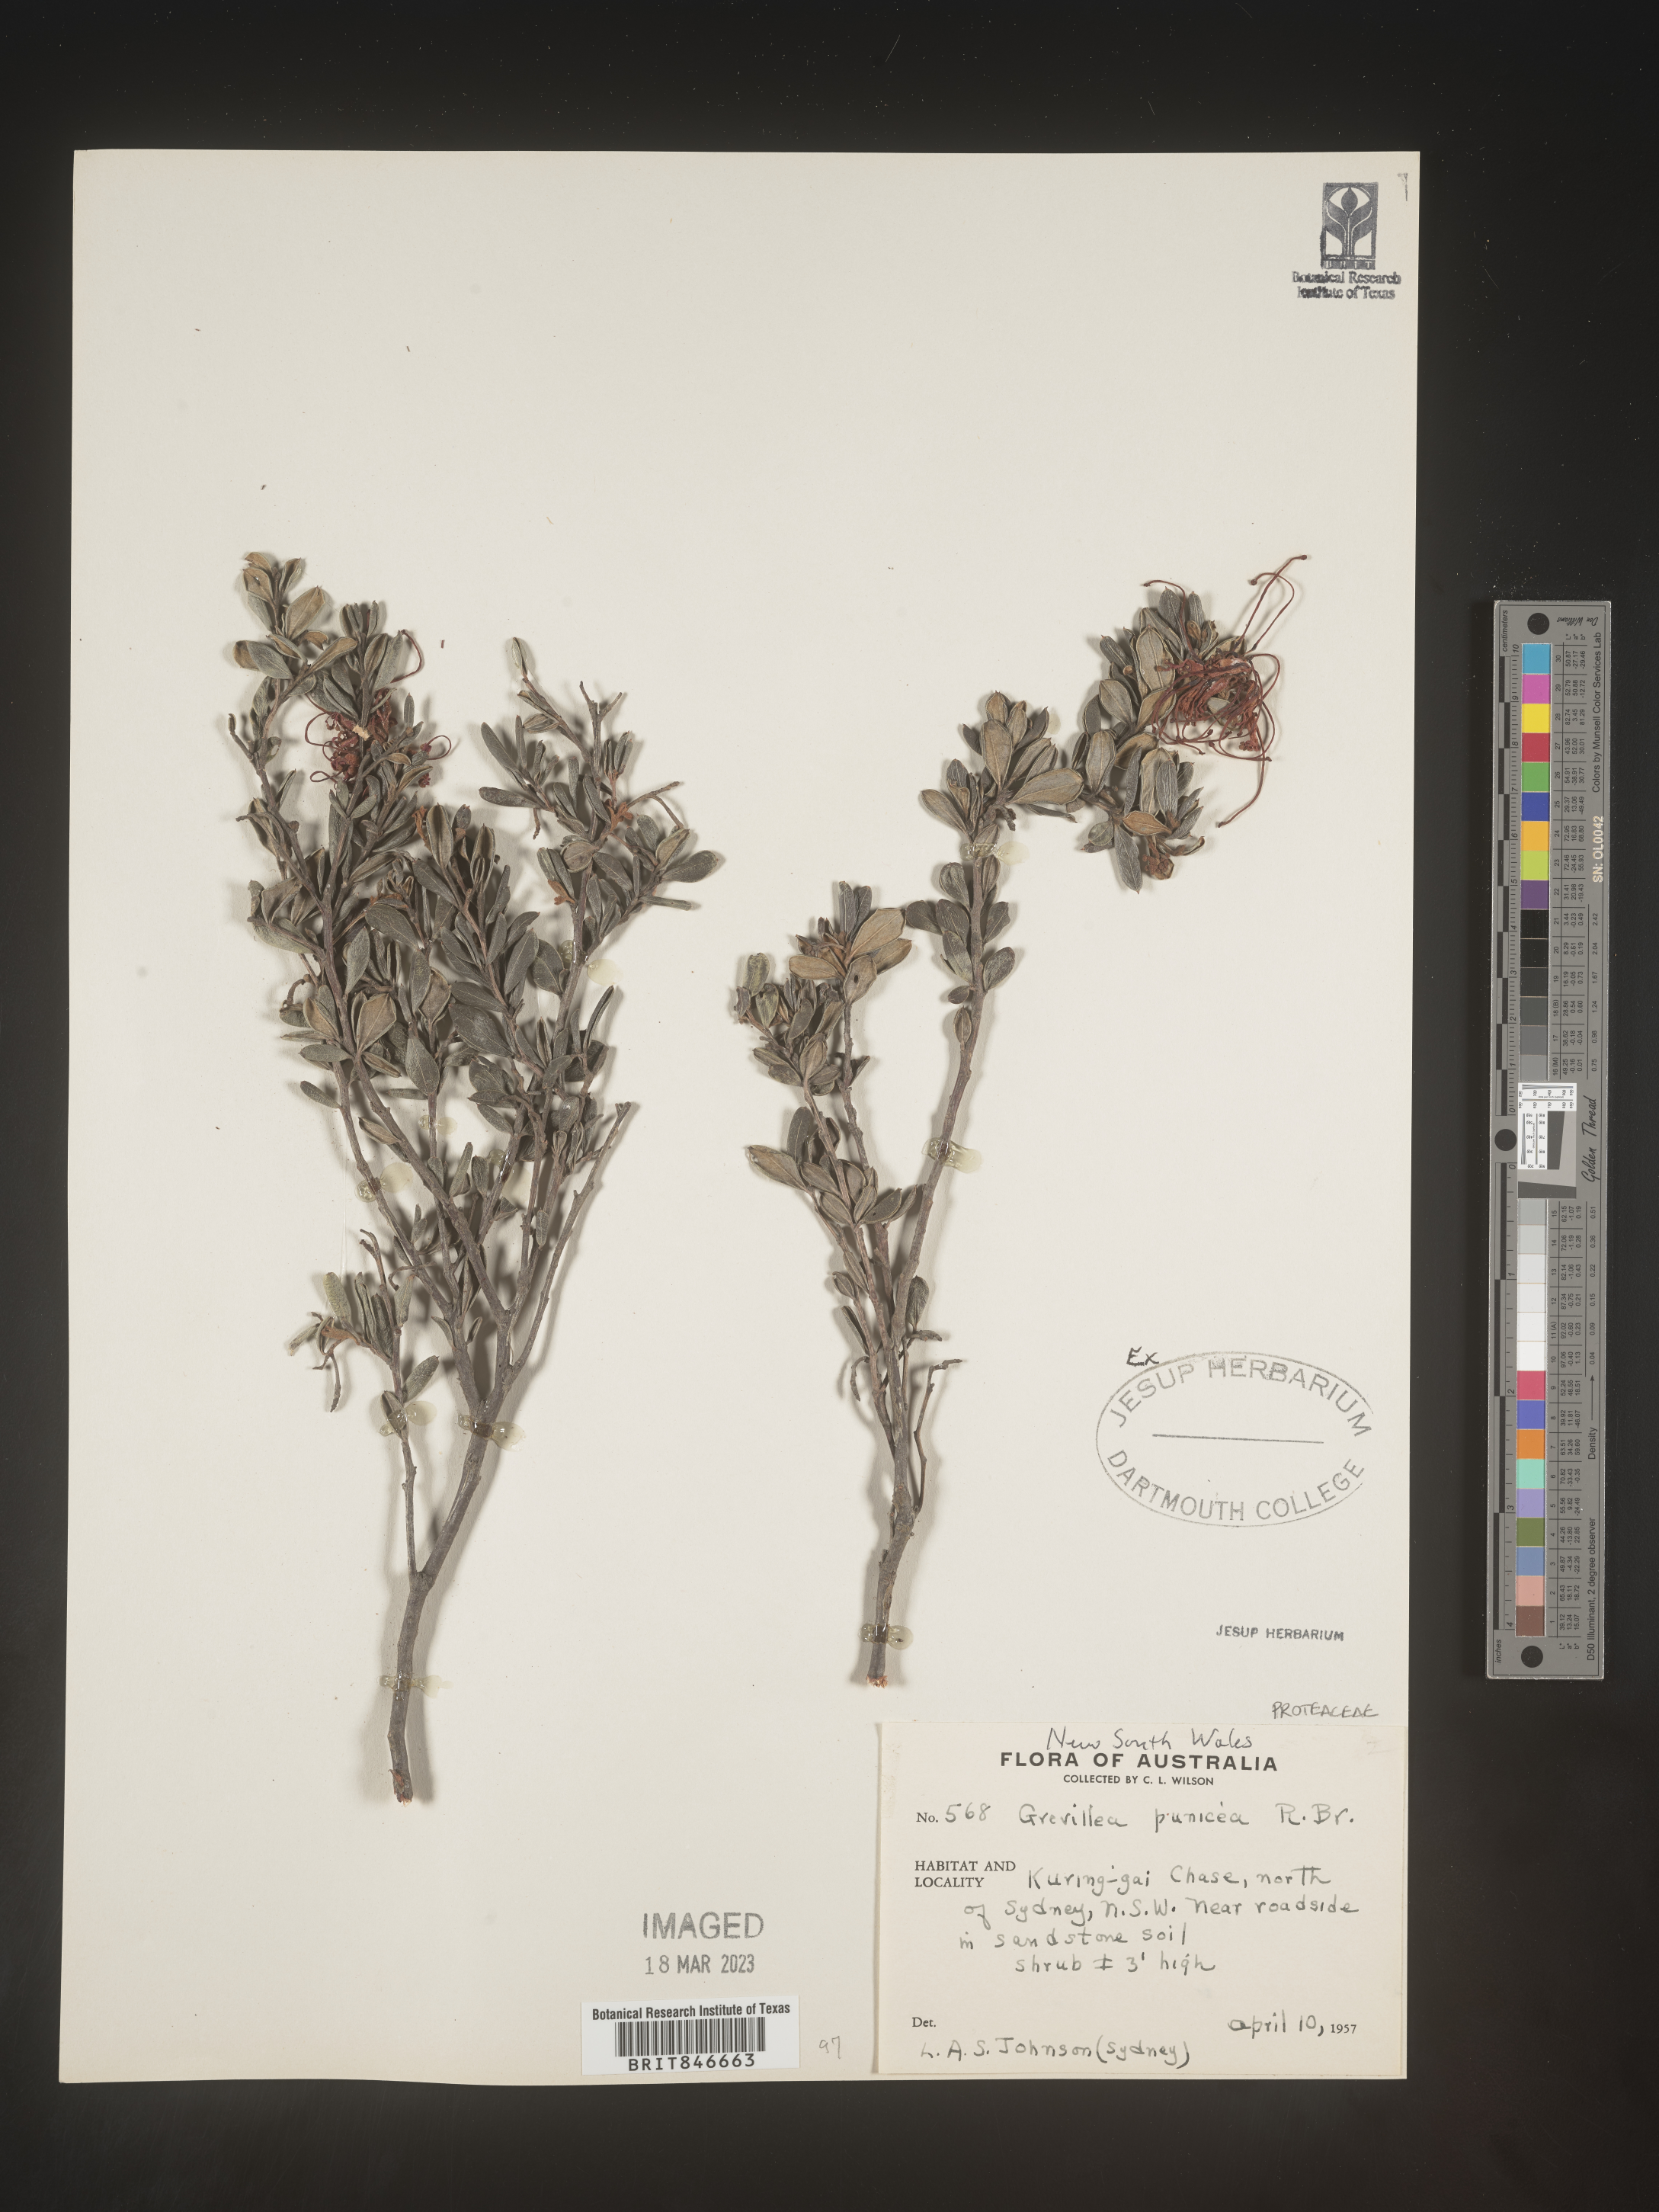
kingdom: Plantae
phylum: Tracheophyta
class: Magnoliopsida
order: Proteales
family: Proteaceae
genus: Grevillea
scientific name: Grevillea
